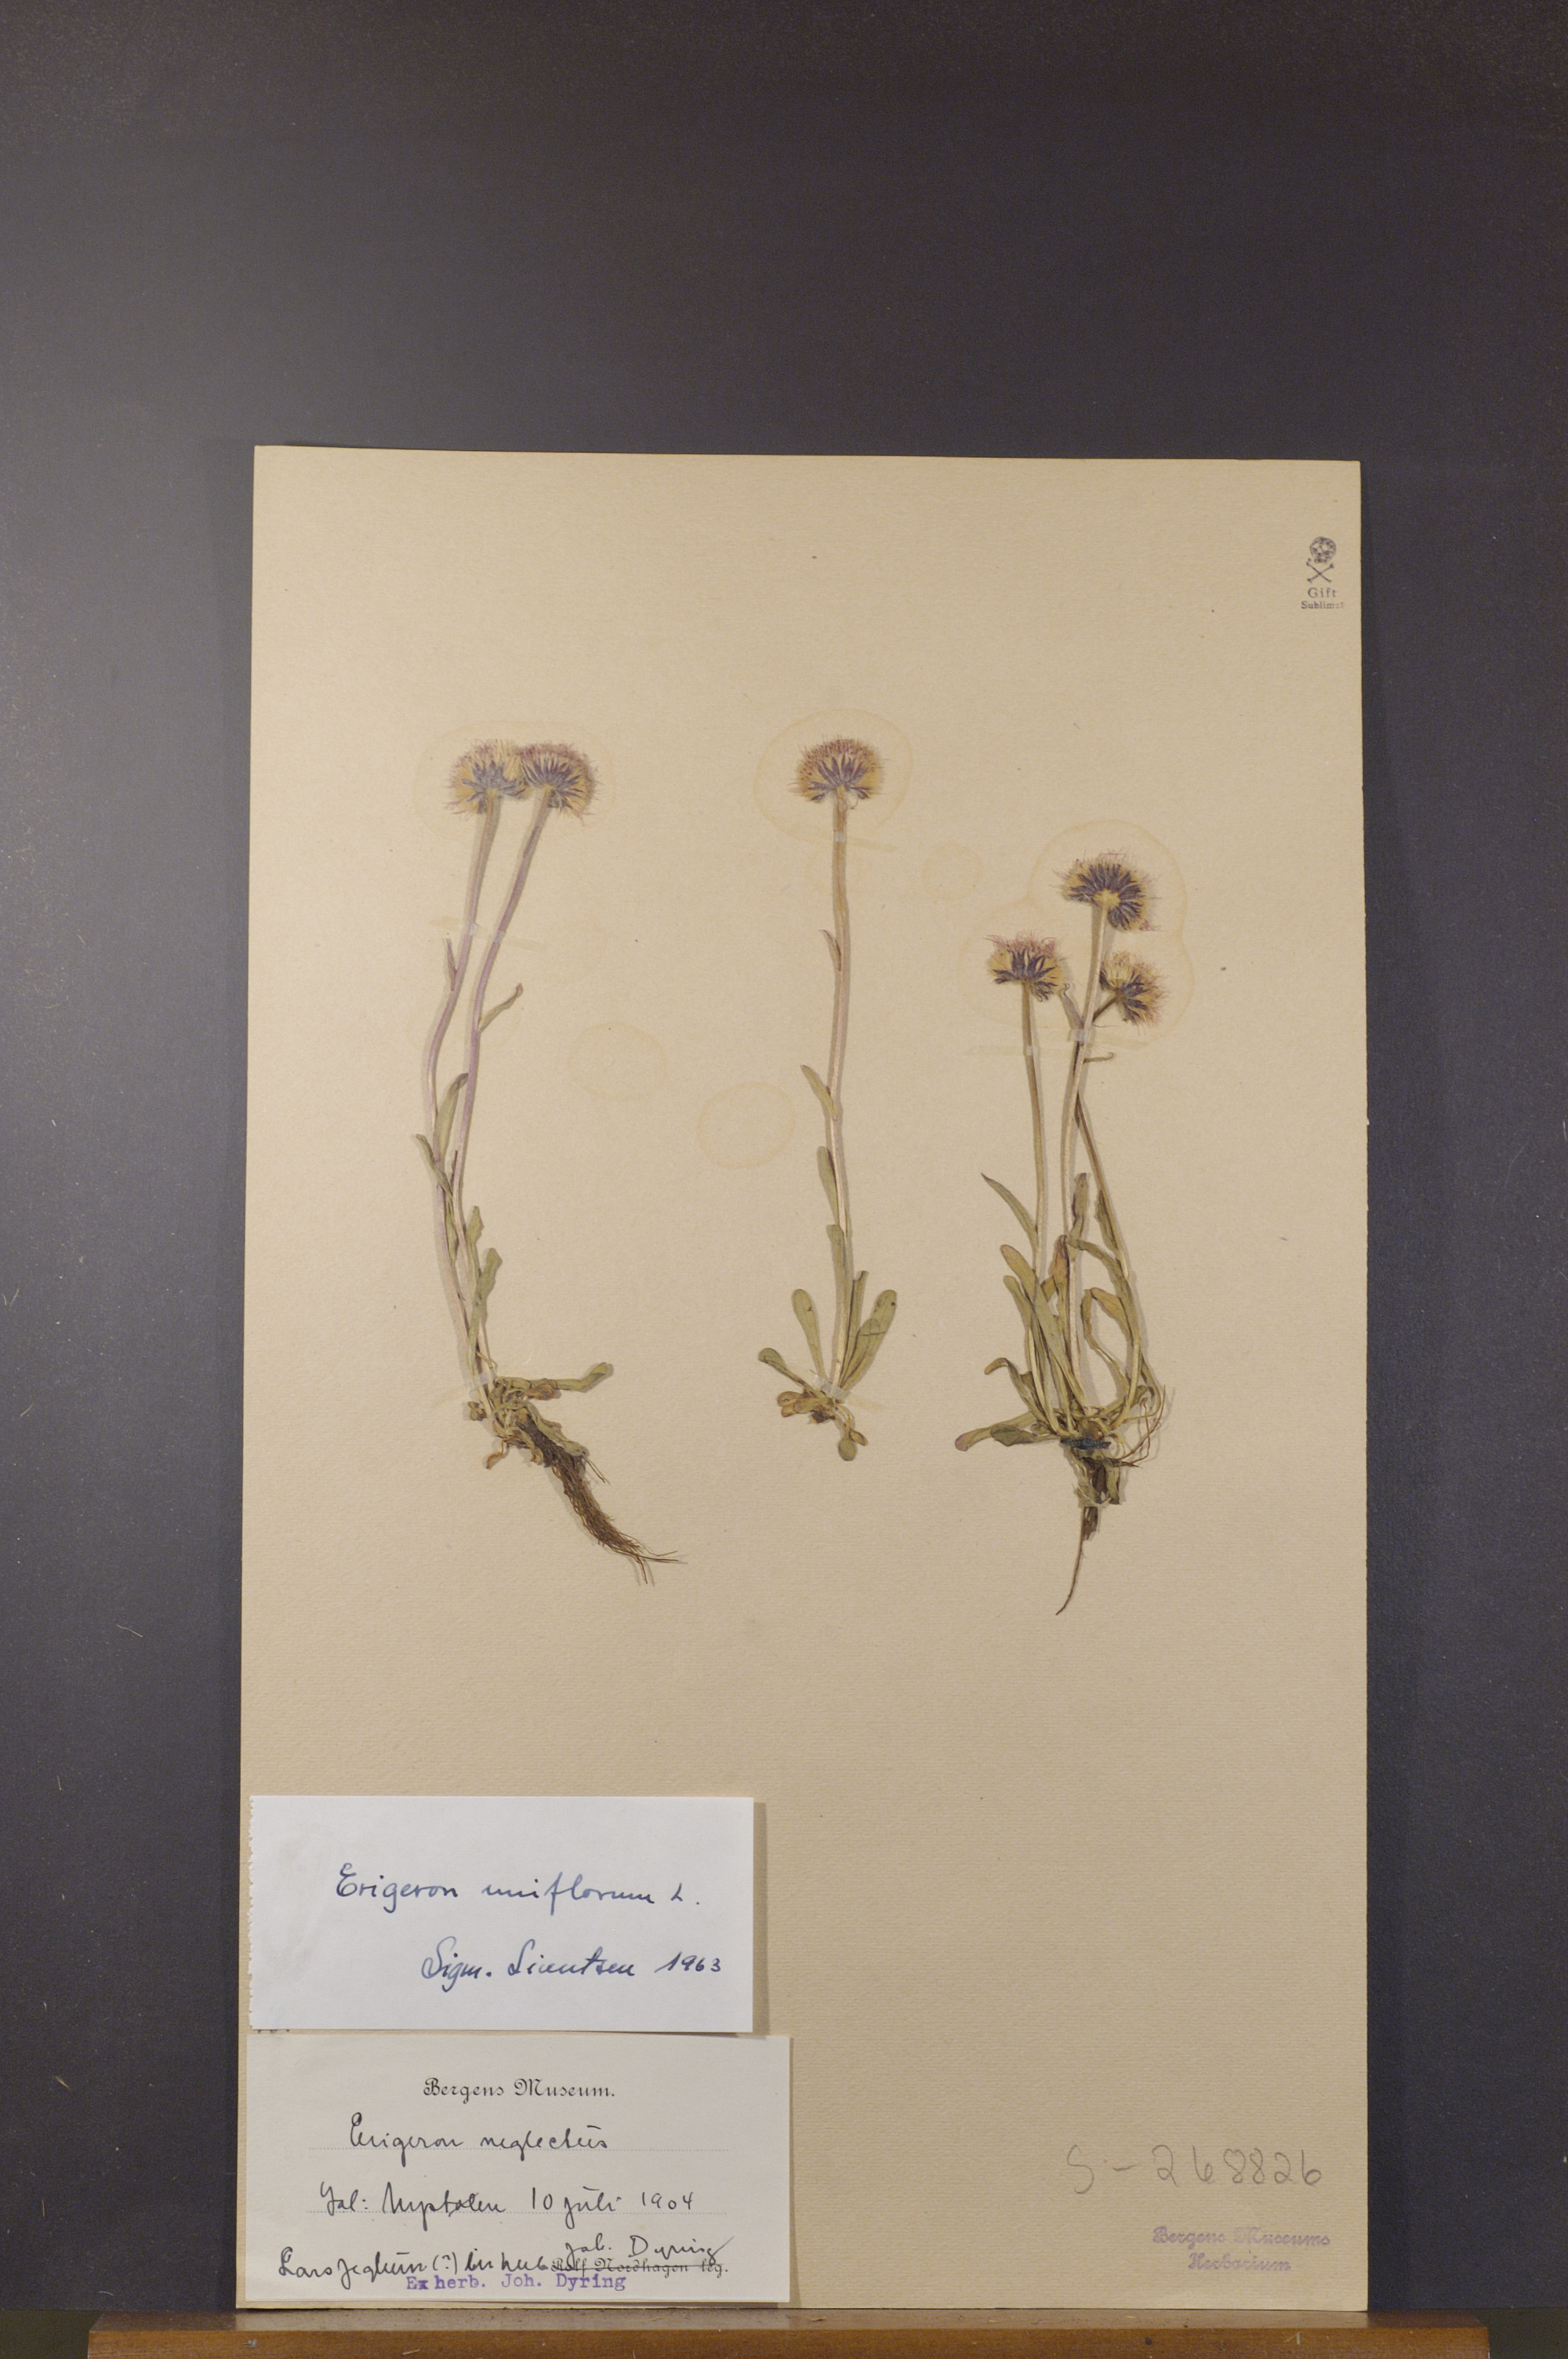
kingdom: Plantae
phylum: Tracheophyta
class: Magnoliopsida
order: Asterales
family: Asteraceae
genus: Erigeron
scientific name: Erigeron uniflorus
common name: Northern daisy
